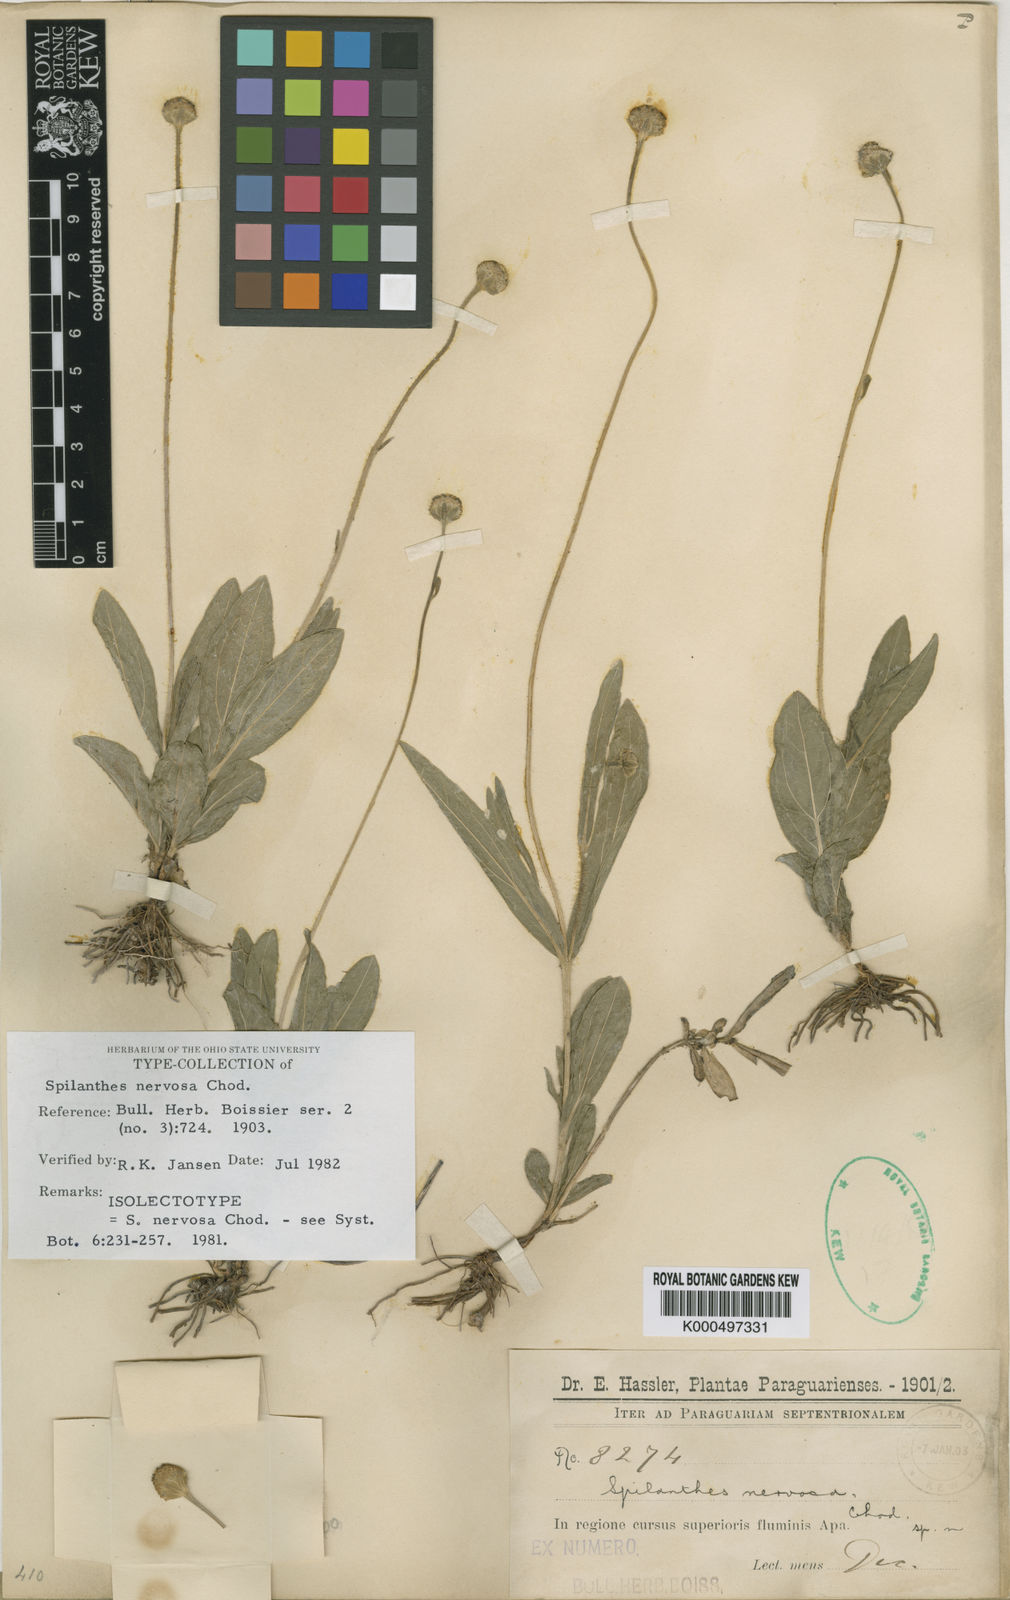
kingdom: Plantae
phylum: Tracheophyta
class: Magnoliopsida
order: Asterales
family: Asteraceae
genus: Spilanthes
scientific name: Spilanthes nervosa
